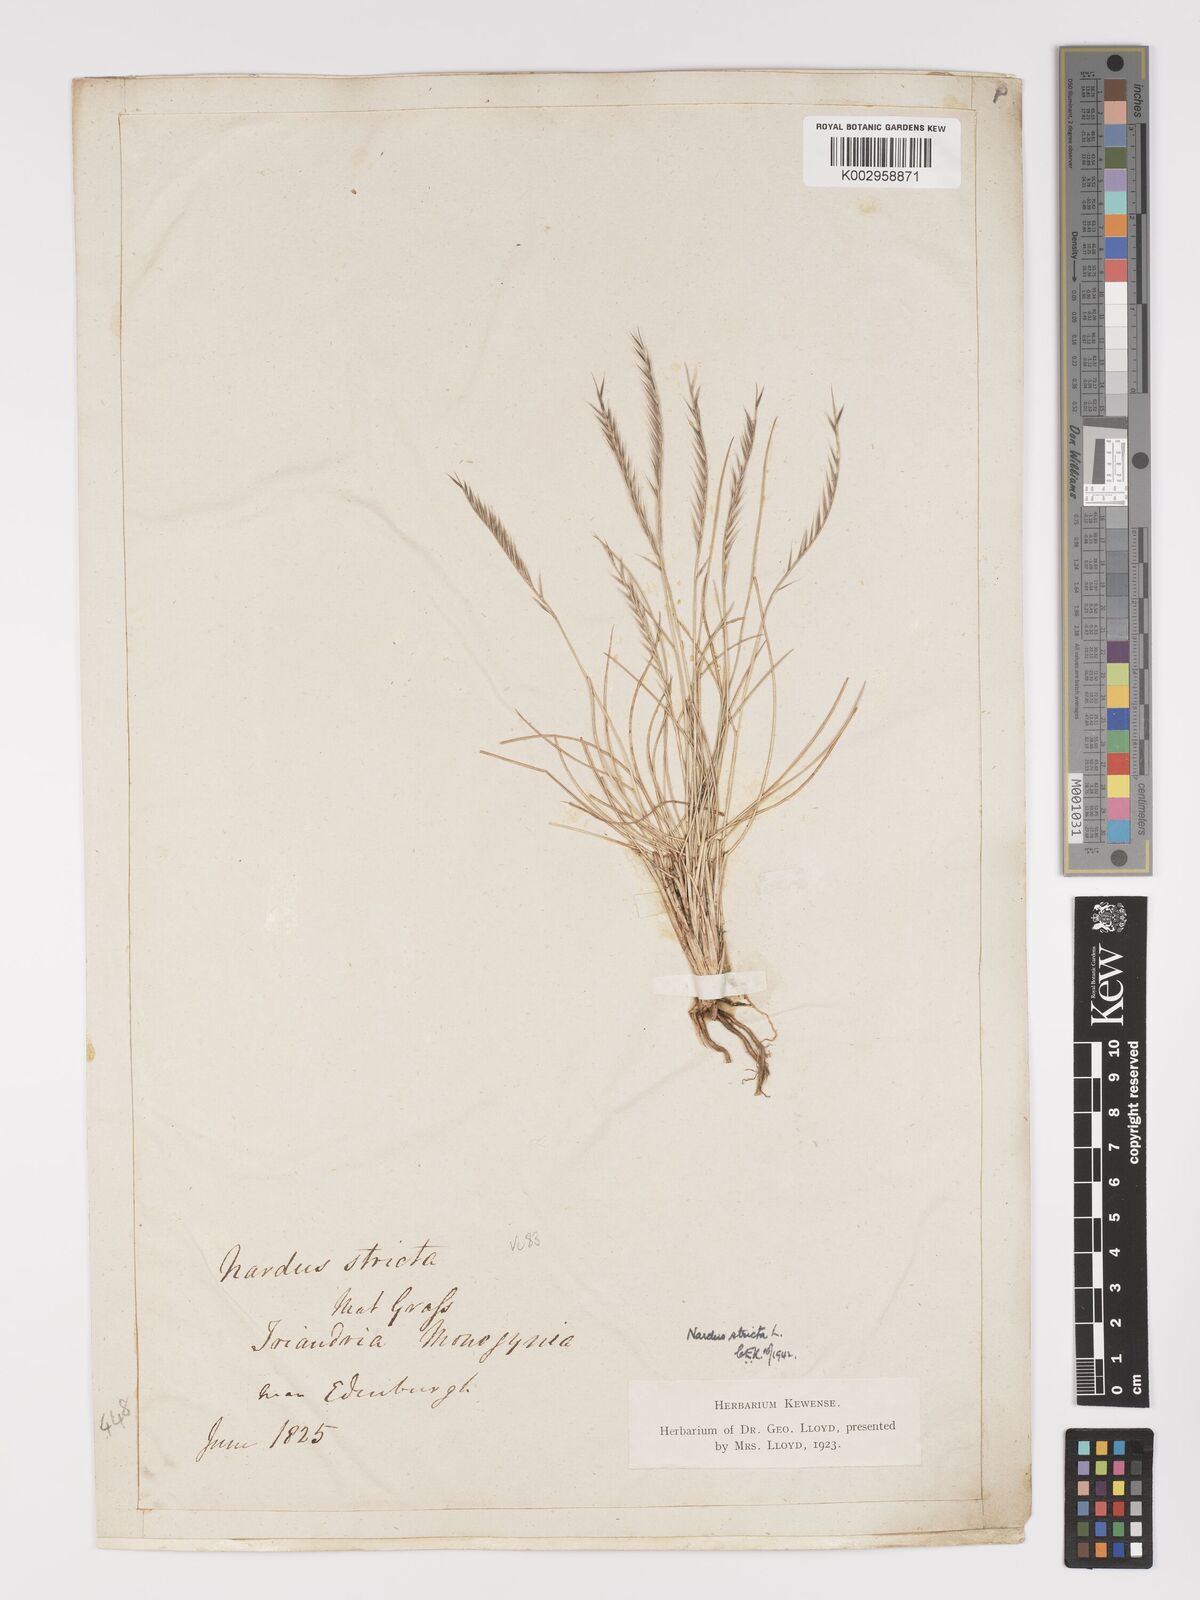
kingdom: Plantae
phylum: Tracheophyta
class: Liliopsida
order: Poales
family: Poaceae
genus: Nardus
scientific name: Nardus stricta
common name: Mat-grass
